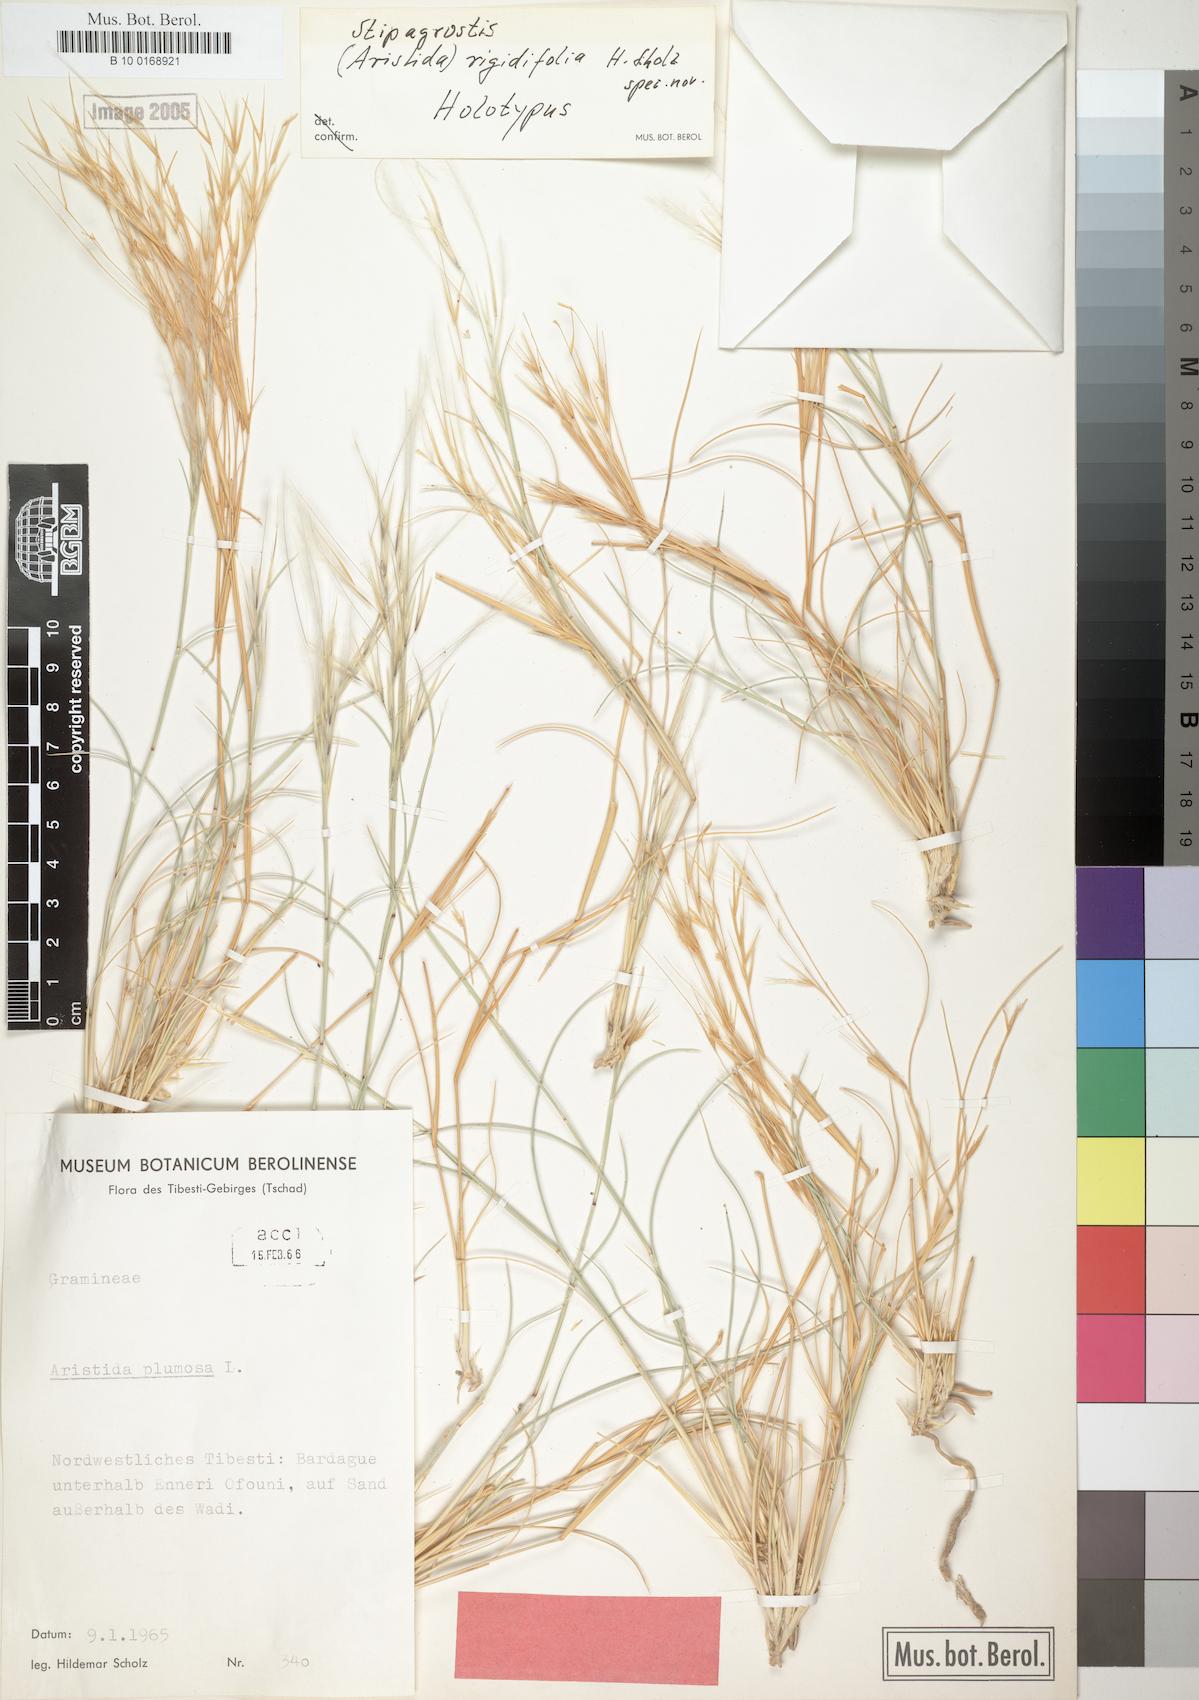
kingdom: Plantae
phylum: Tracheophyta
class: Liliopsida
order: Poales
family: Poaceae
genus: Stipagrostis
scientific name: Stipagrostis rigidifolia
